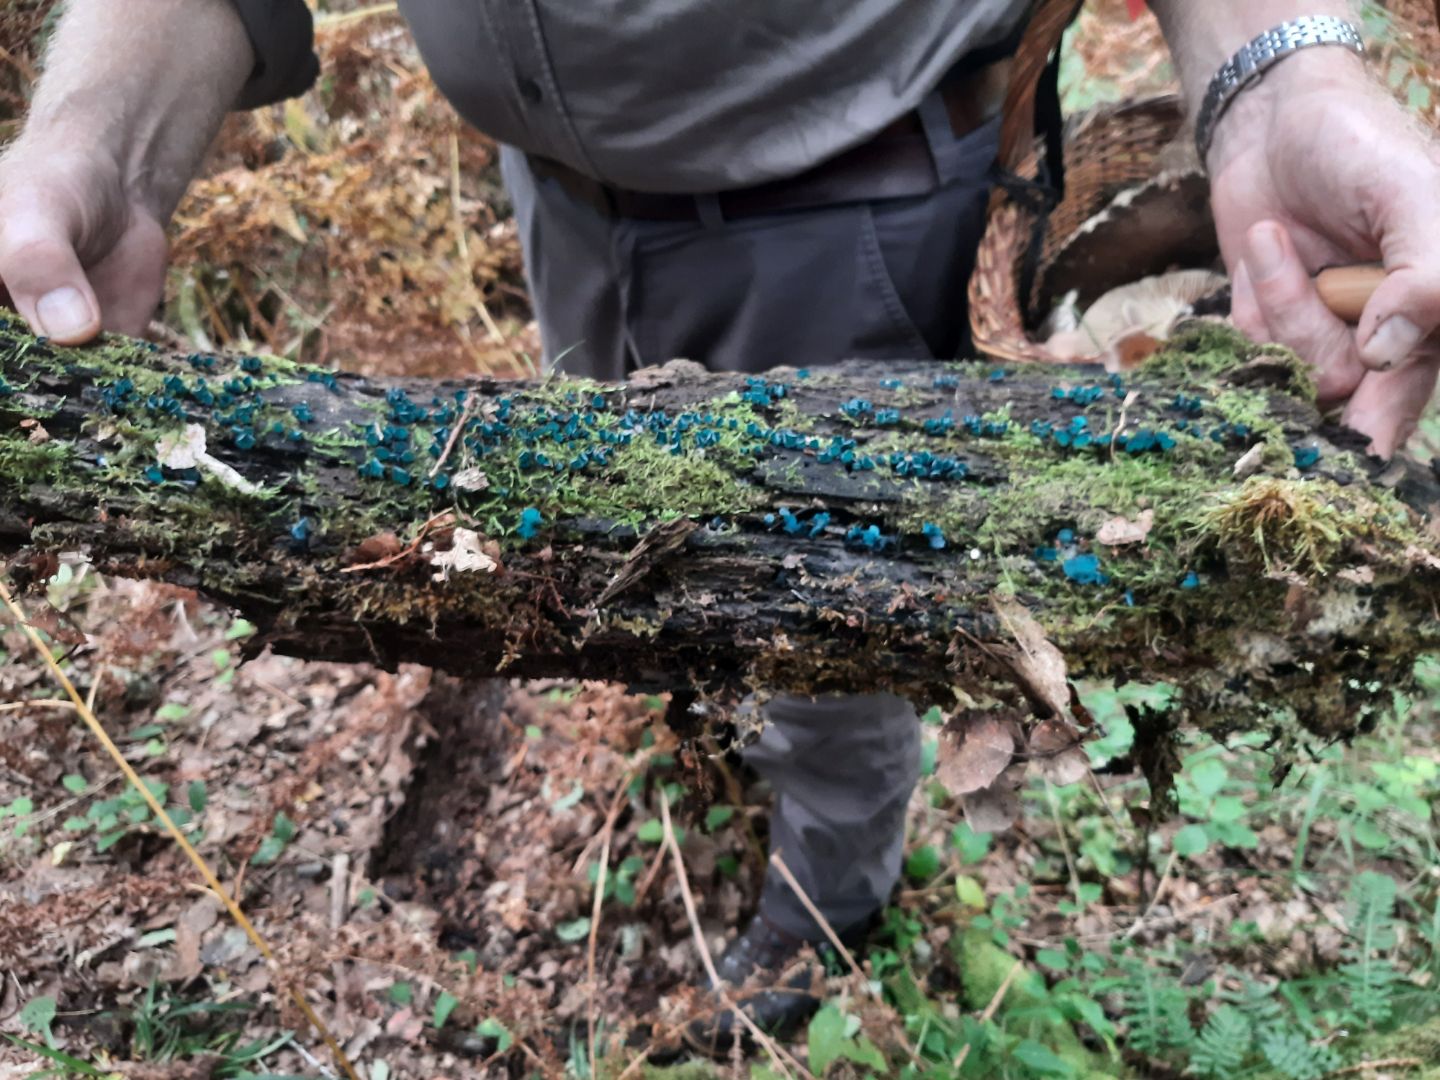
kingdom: Fungi
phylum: Ascomycota
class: Leotiomycetes
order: Helotiales
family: Chlorociboriaceae
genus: Chlorociboria
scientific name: Chlorociboria aeruginascens
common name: almindelig grønskive
